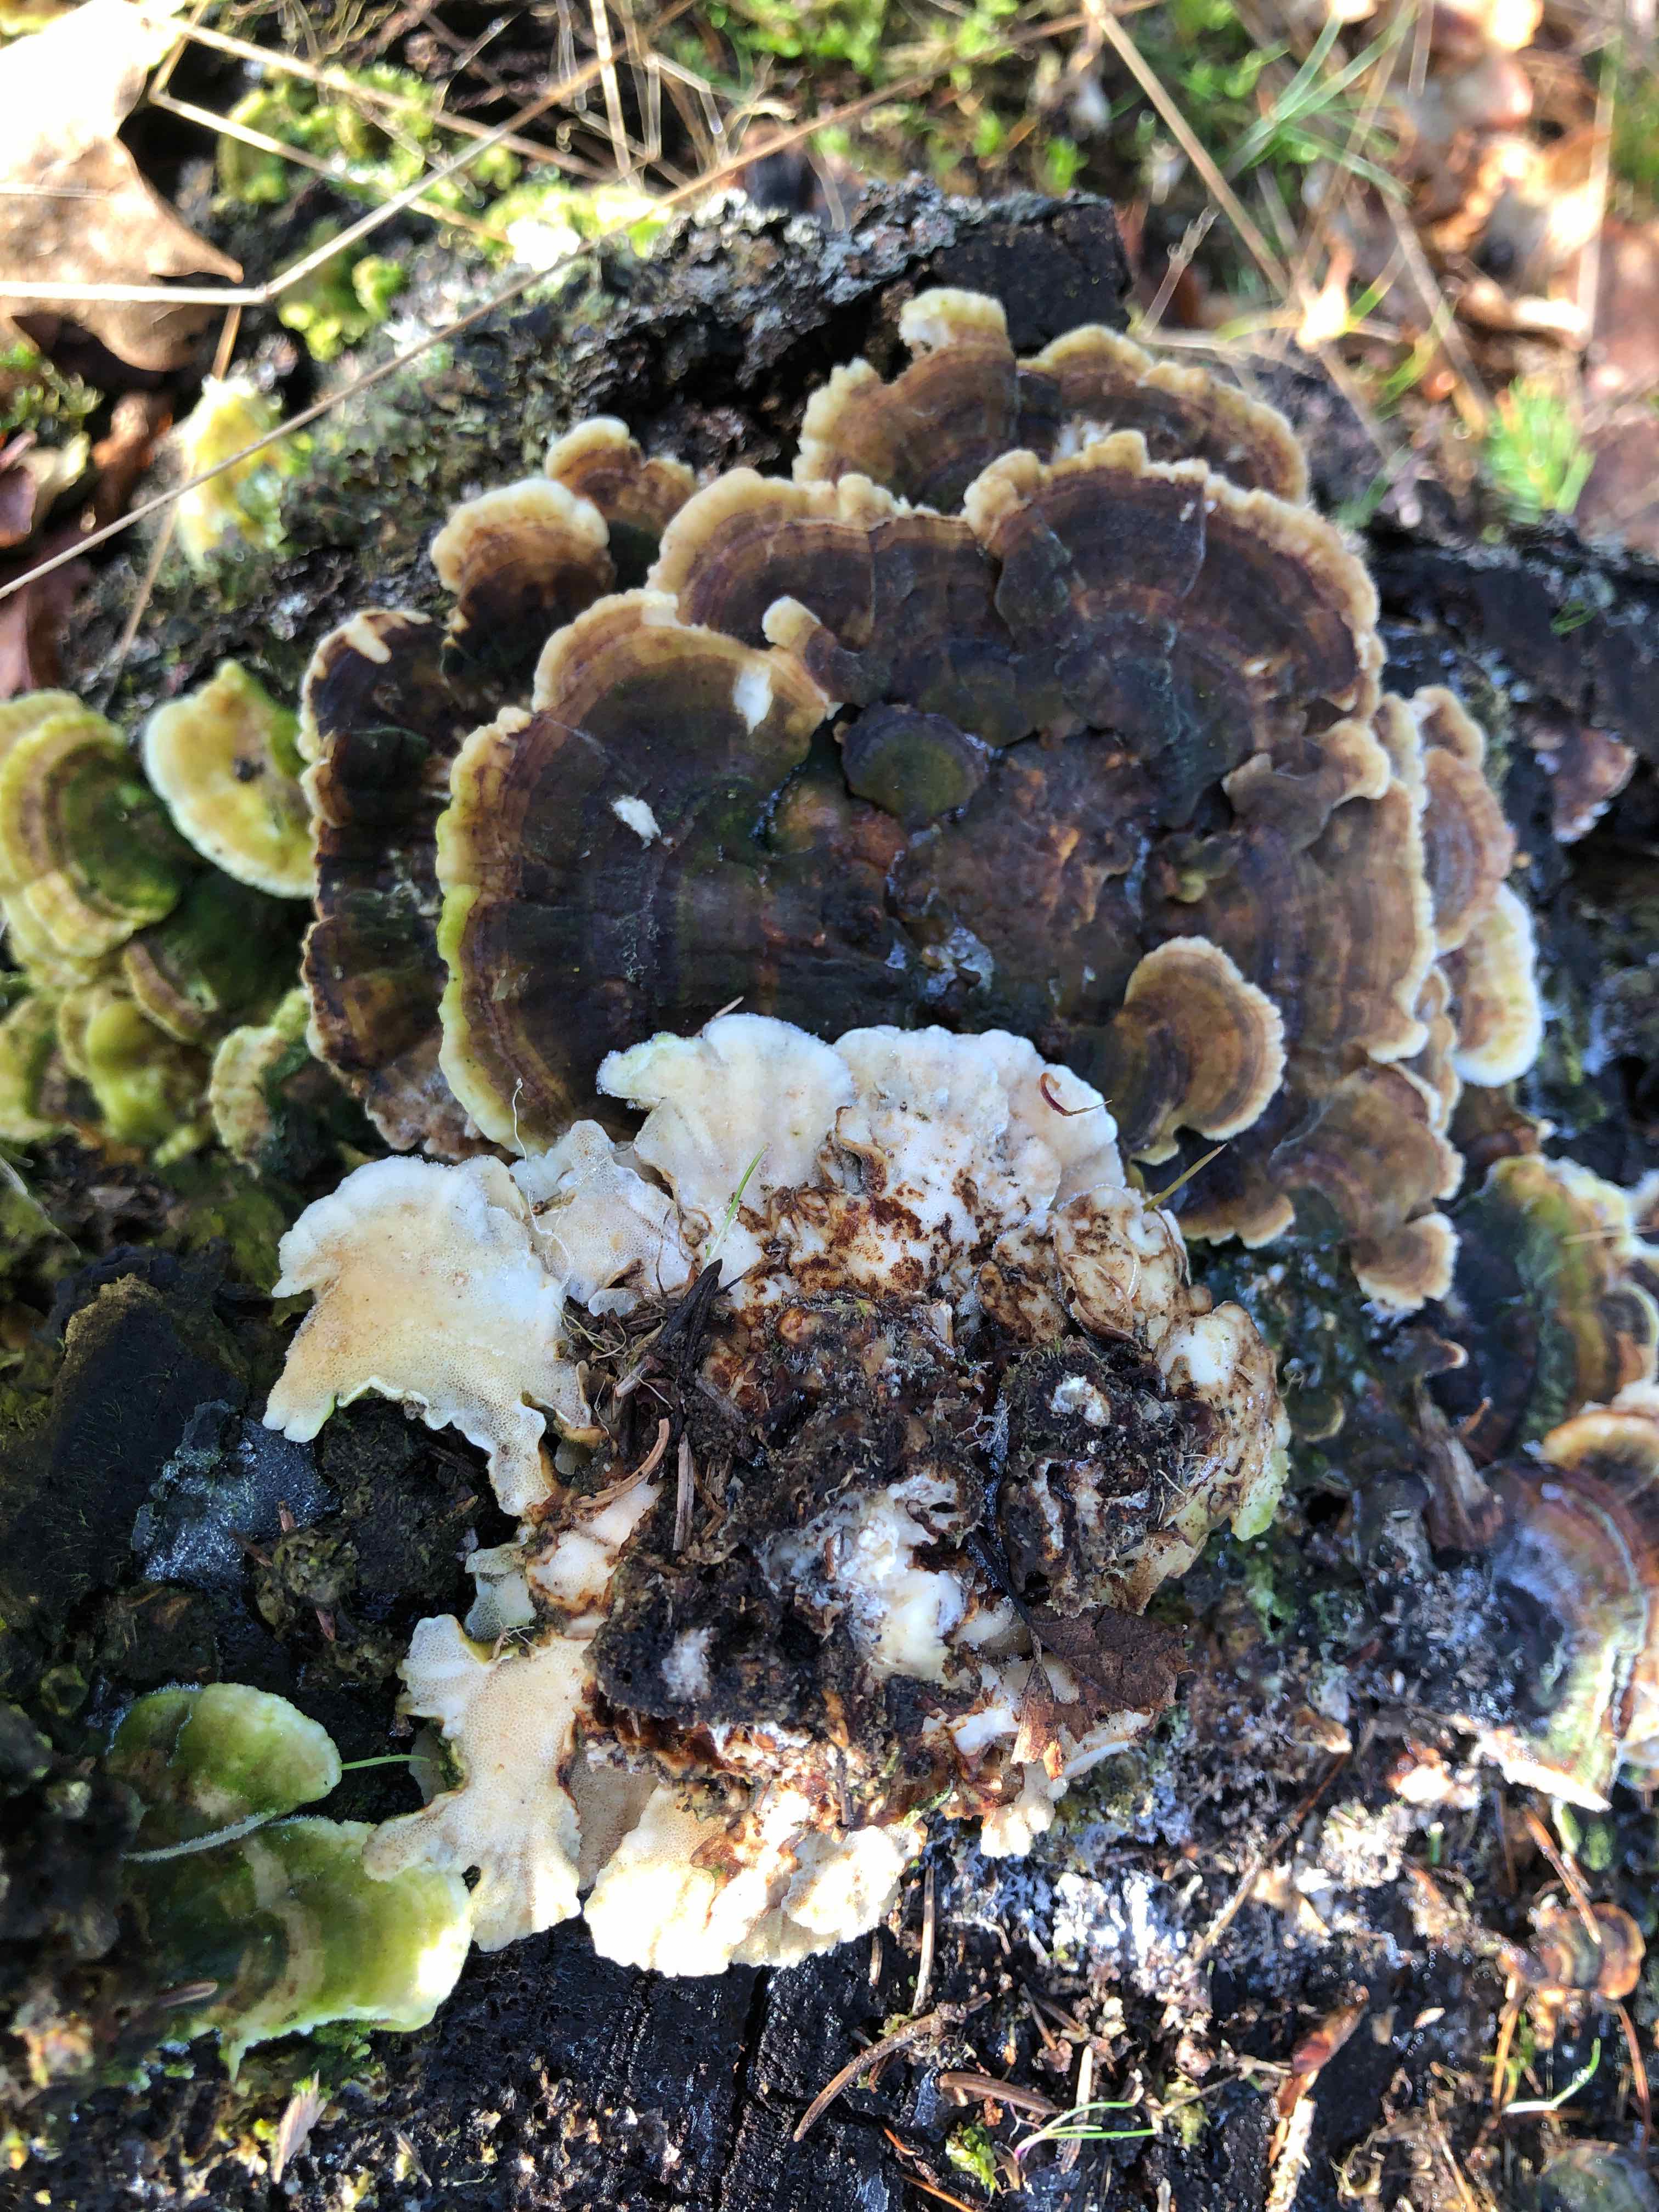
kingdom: Fungi
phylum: Basidiomycota
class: Agaricomycetes
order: Polyporales
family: Polyporaceae
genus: Trametes
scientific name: Trametes versicolor
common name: broget læderporesvamp
